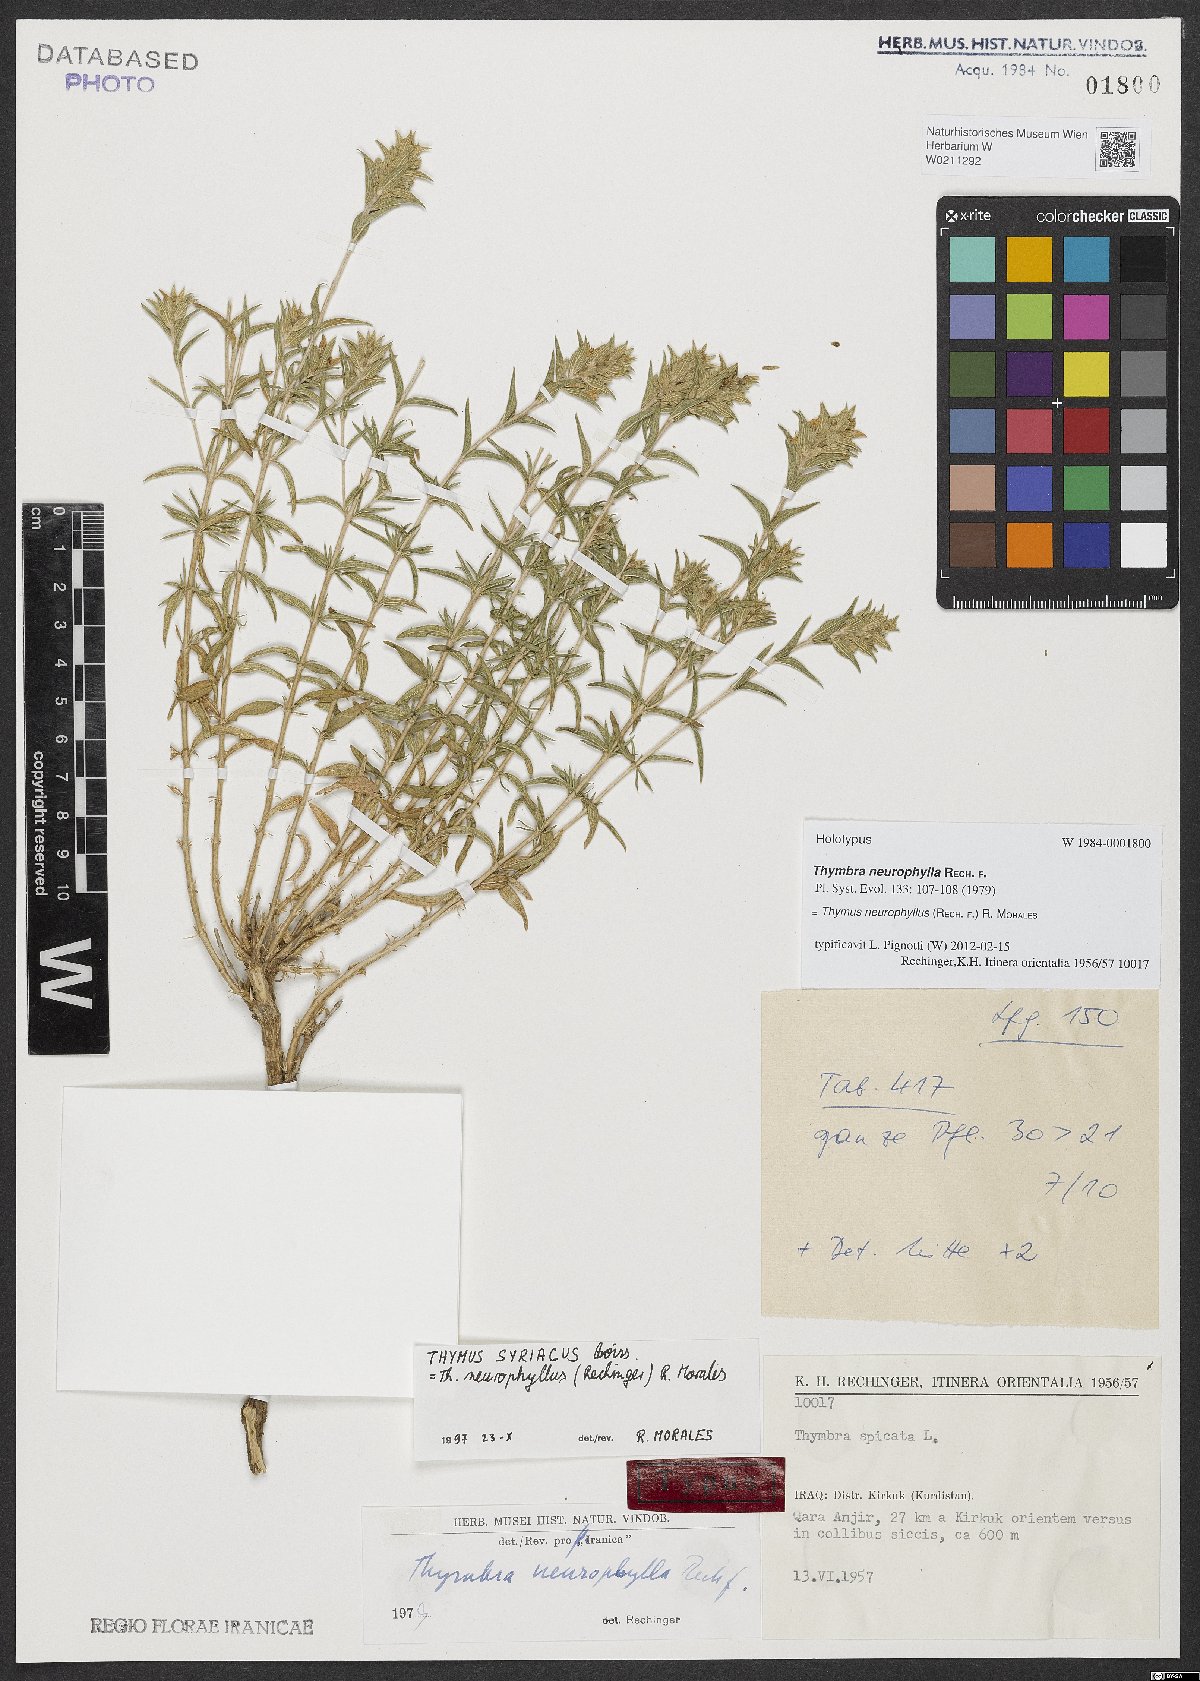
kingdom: Plantae
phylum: Tracheophyta
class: Magnoliopsida
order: Lamiales
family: Lamiaceae
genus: Thymus
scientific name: Thymus neurophyllus
